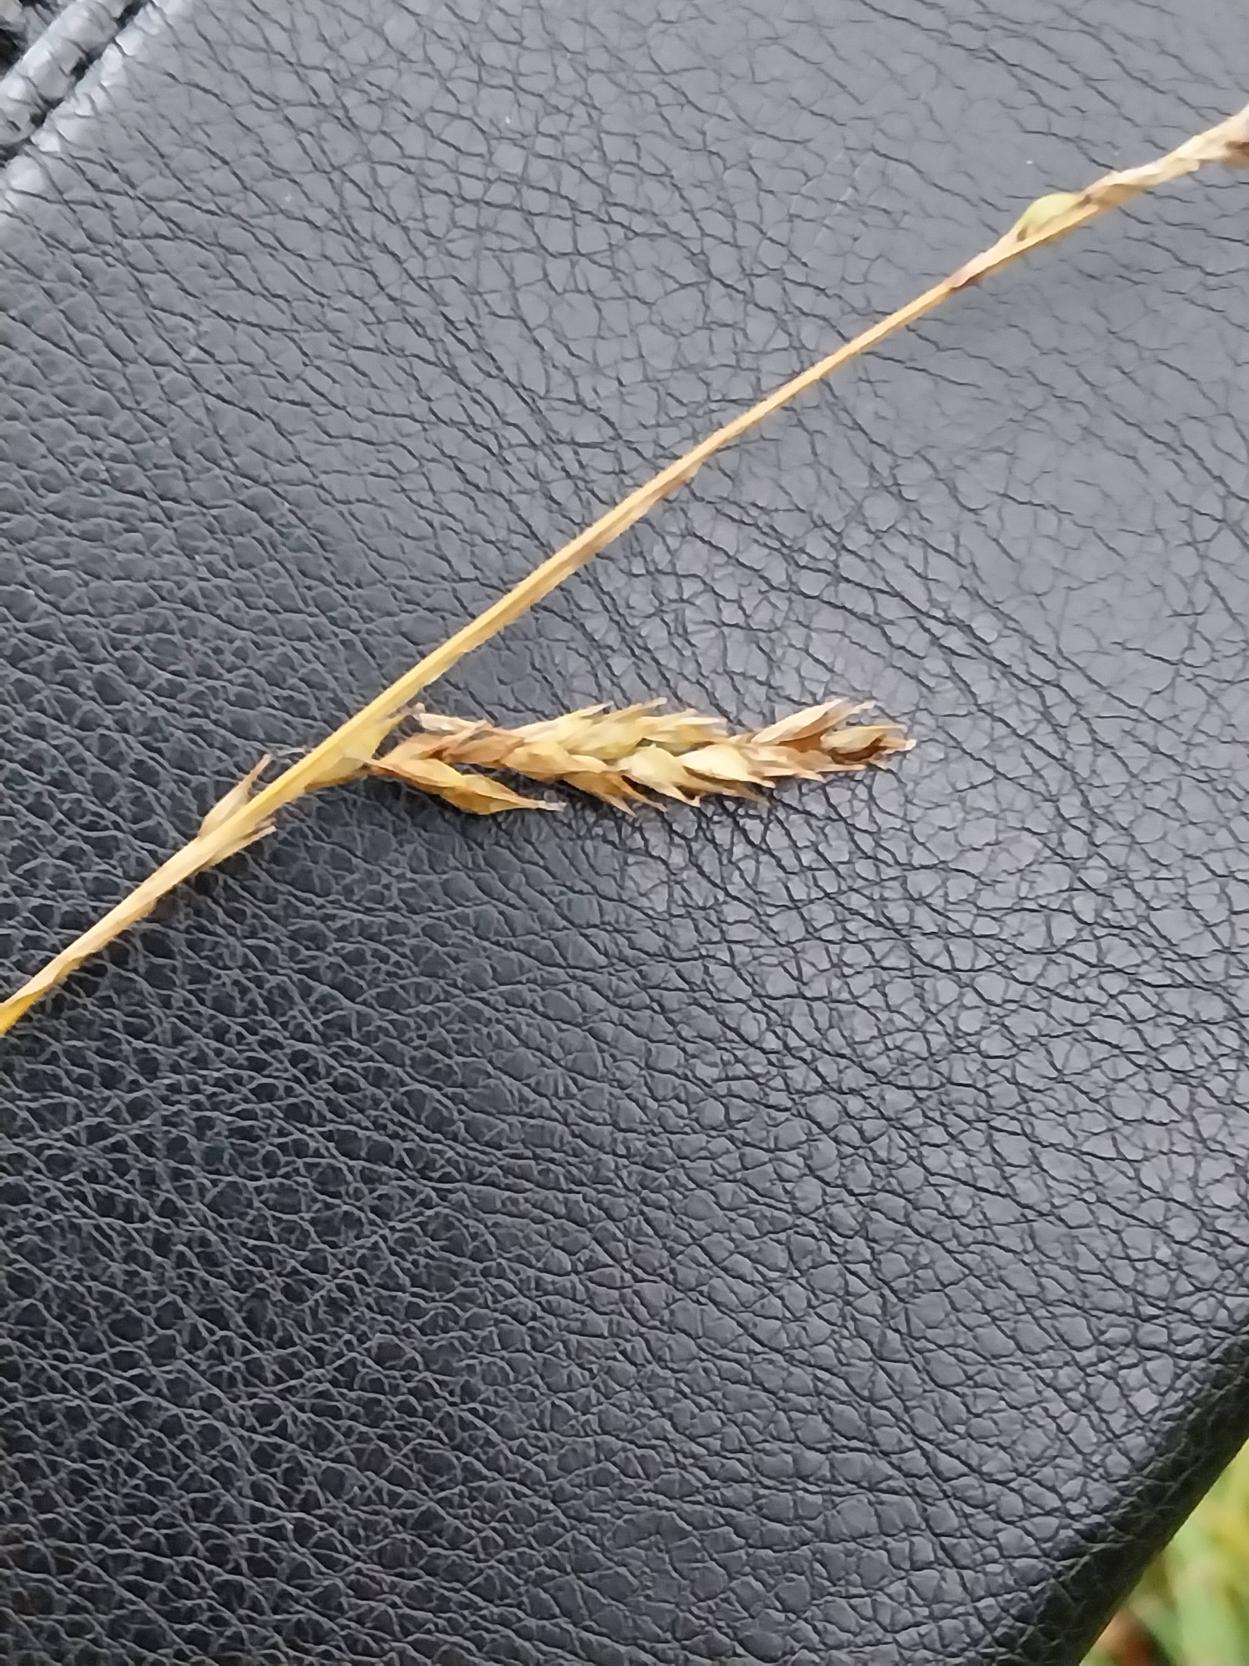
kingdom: Plantae
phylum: Tracheophyta
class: Liliopsida
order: Poales
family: Cyperaceae
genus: Carex
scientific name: Carex sylvatica
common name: Skov-star
